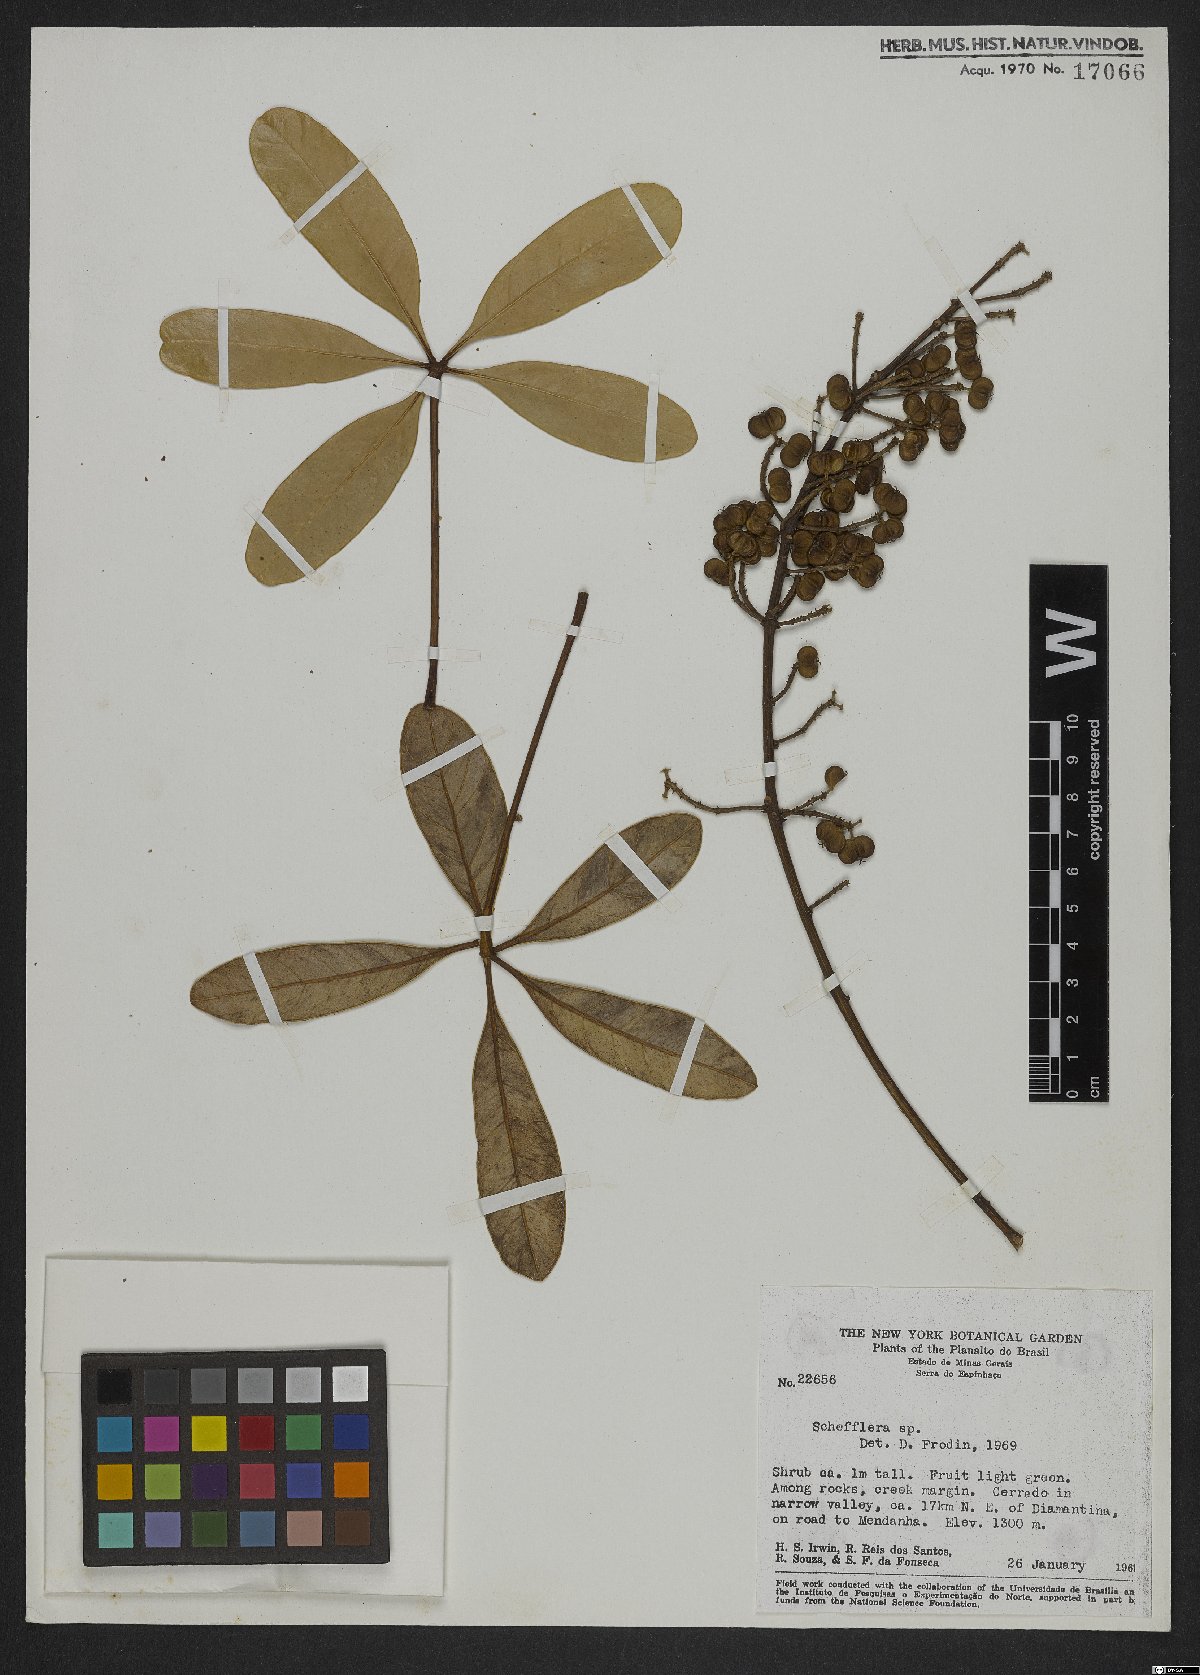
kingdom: Plantae
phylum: Tracheophyta
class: Magnoliopsida
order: Apiales
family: Araliaceae
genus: Didymopanax
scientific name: Didymopanax vinosus
